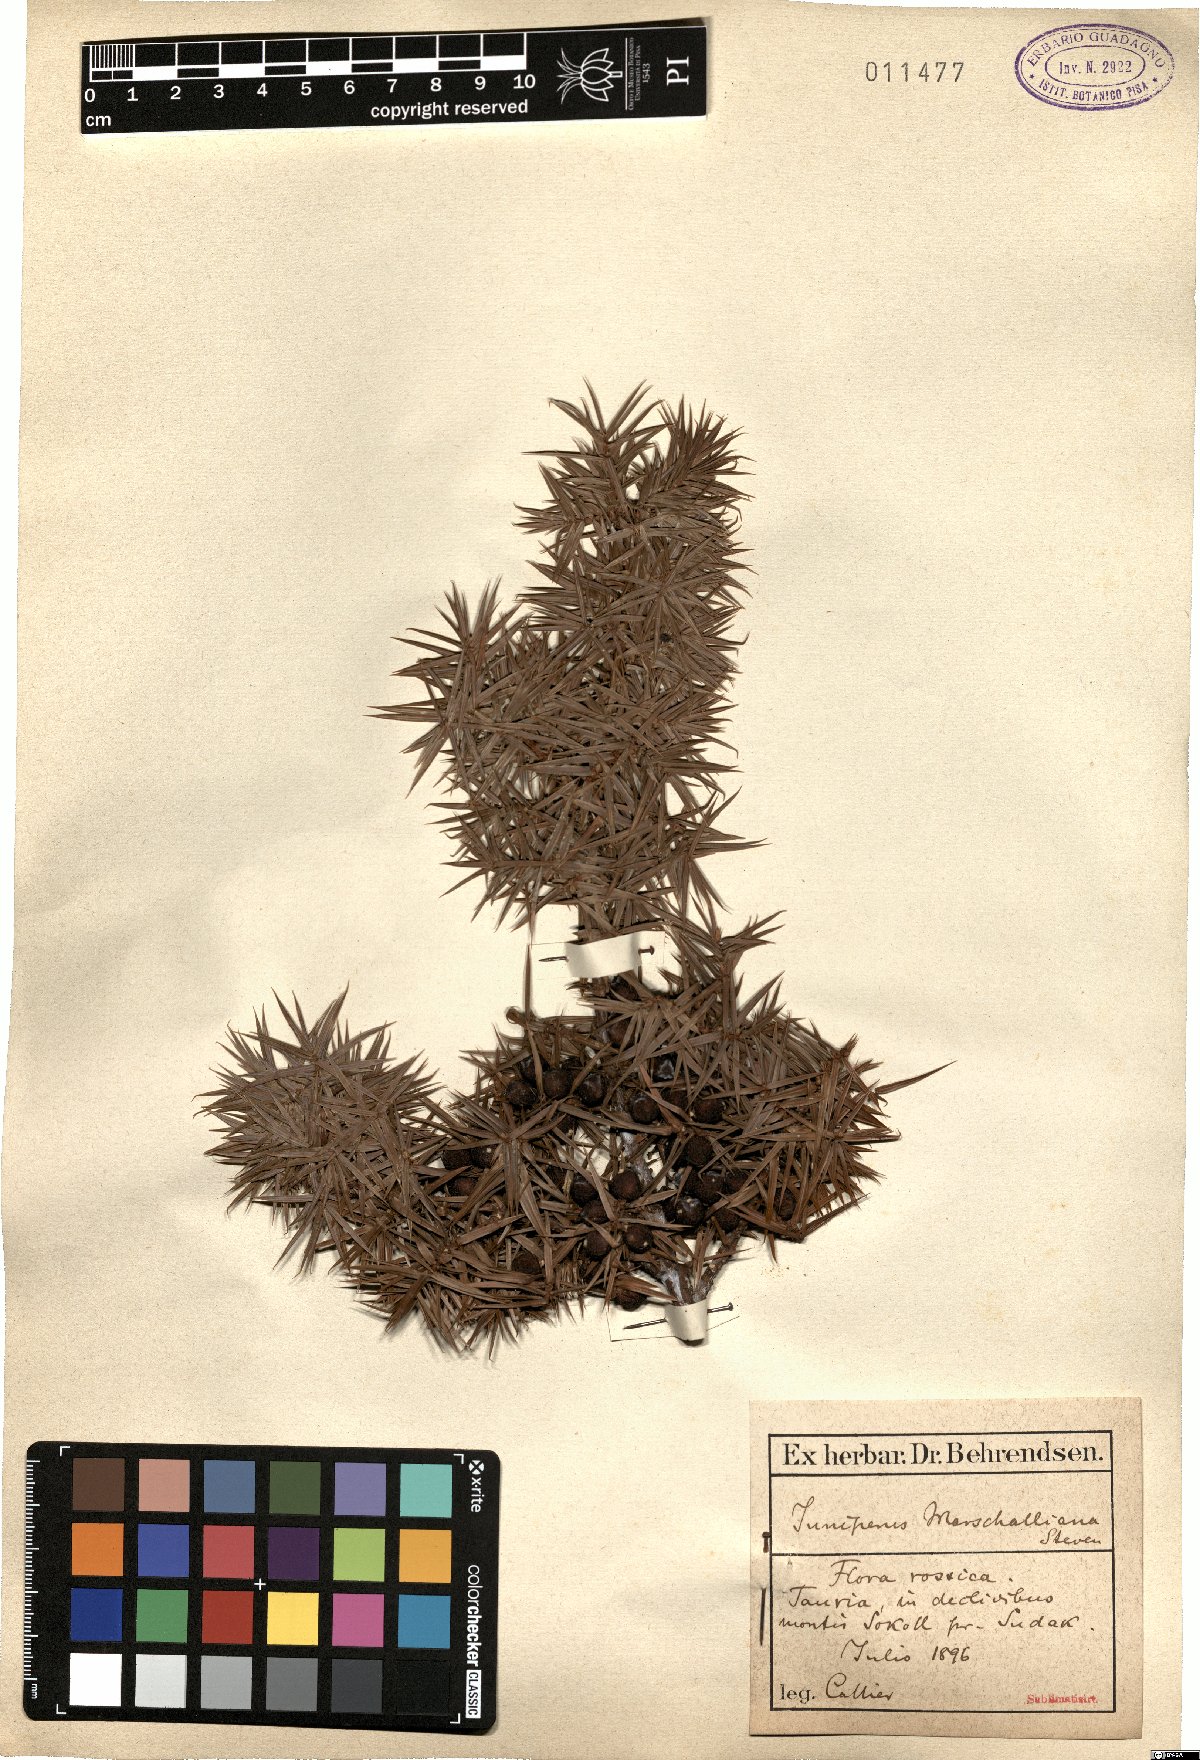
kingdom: Plantae
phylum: Tracheophyta
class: Pinopsida
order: Pinales
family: Cupressaceae
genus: Juniperus
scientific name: Juniperus oxycedrus
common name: Prickly juniper
